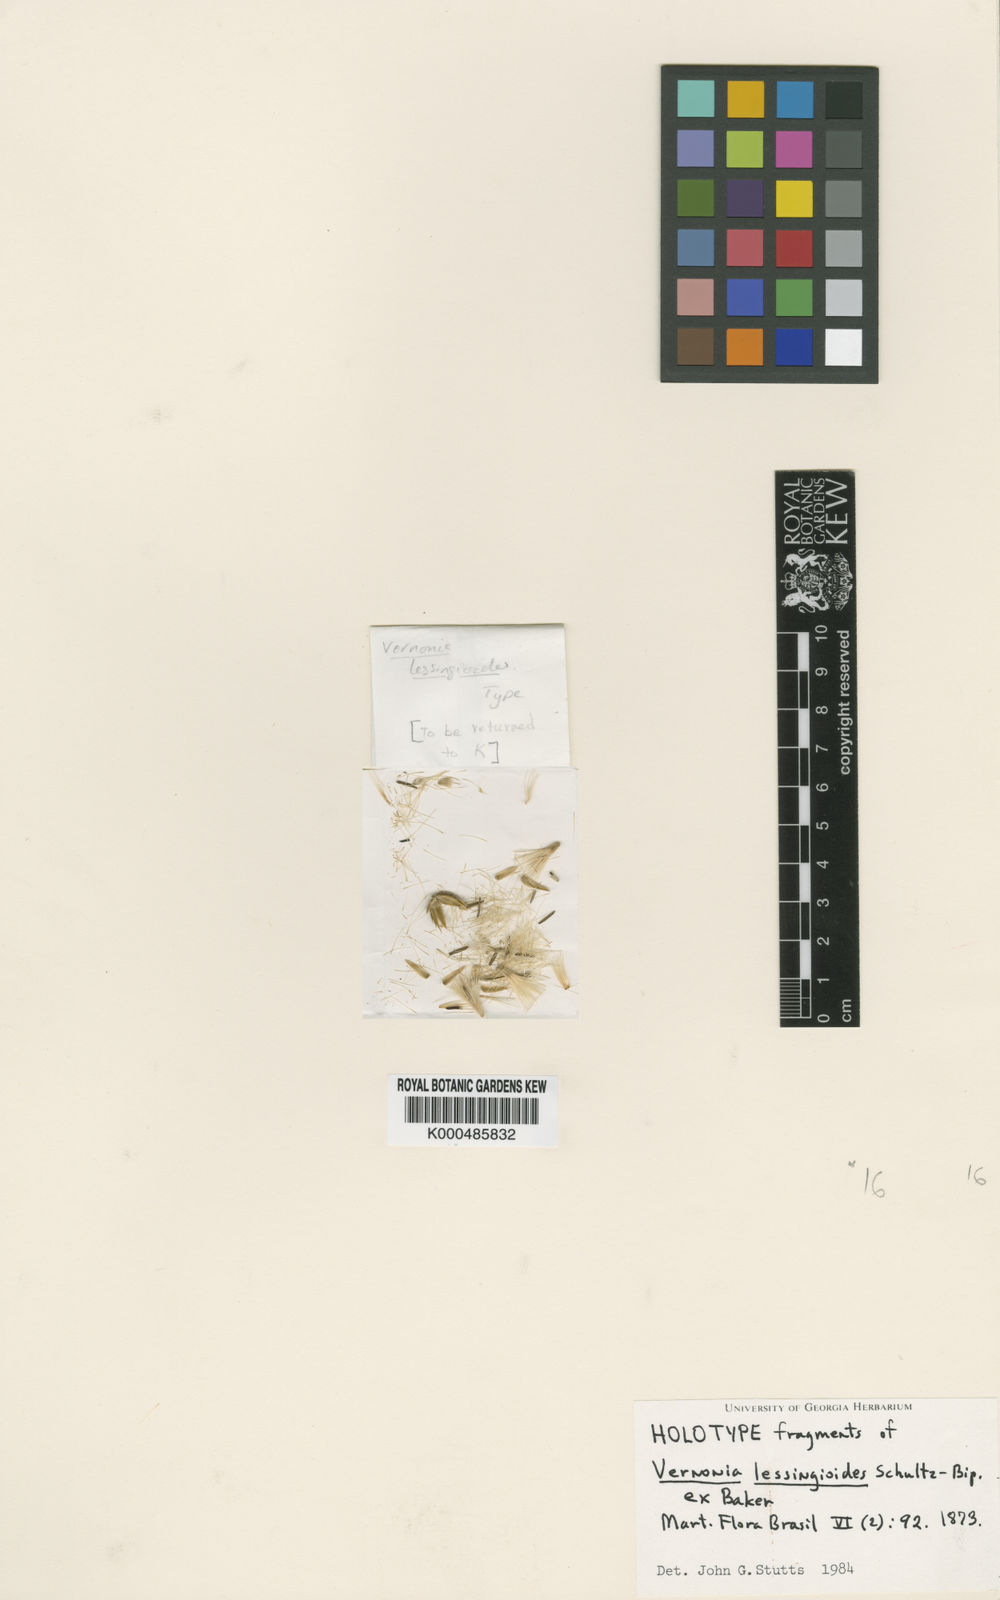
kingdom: Plantae
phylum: Tracheophyta
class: Magnoliopsida
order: Asterales
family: Asteraceae
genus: Vernonia
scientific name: Vernonia
